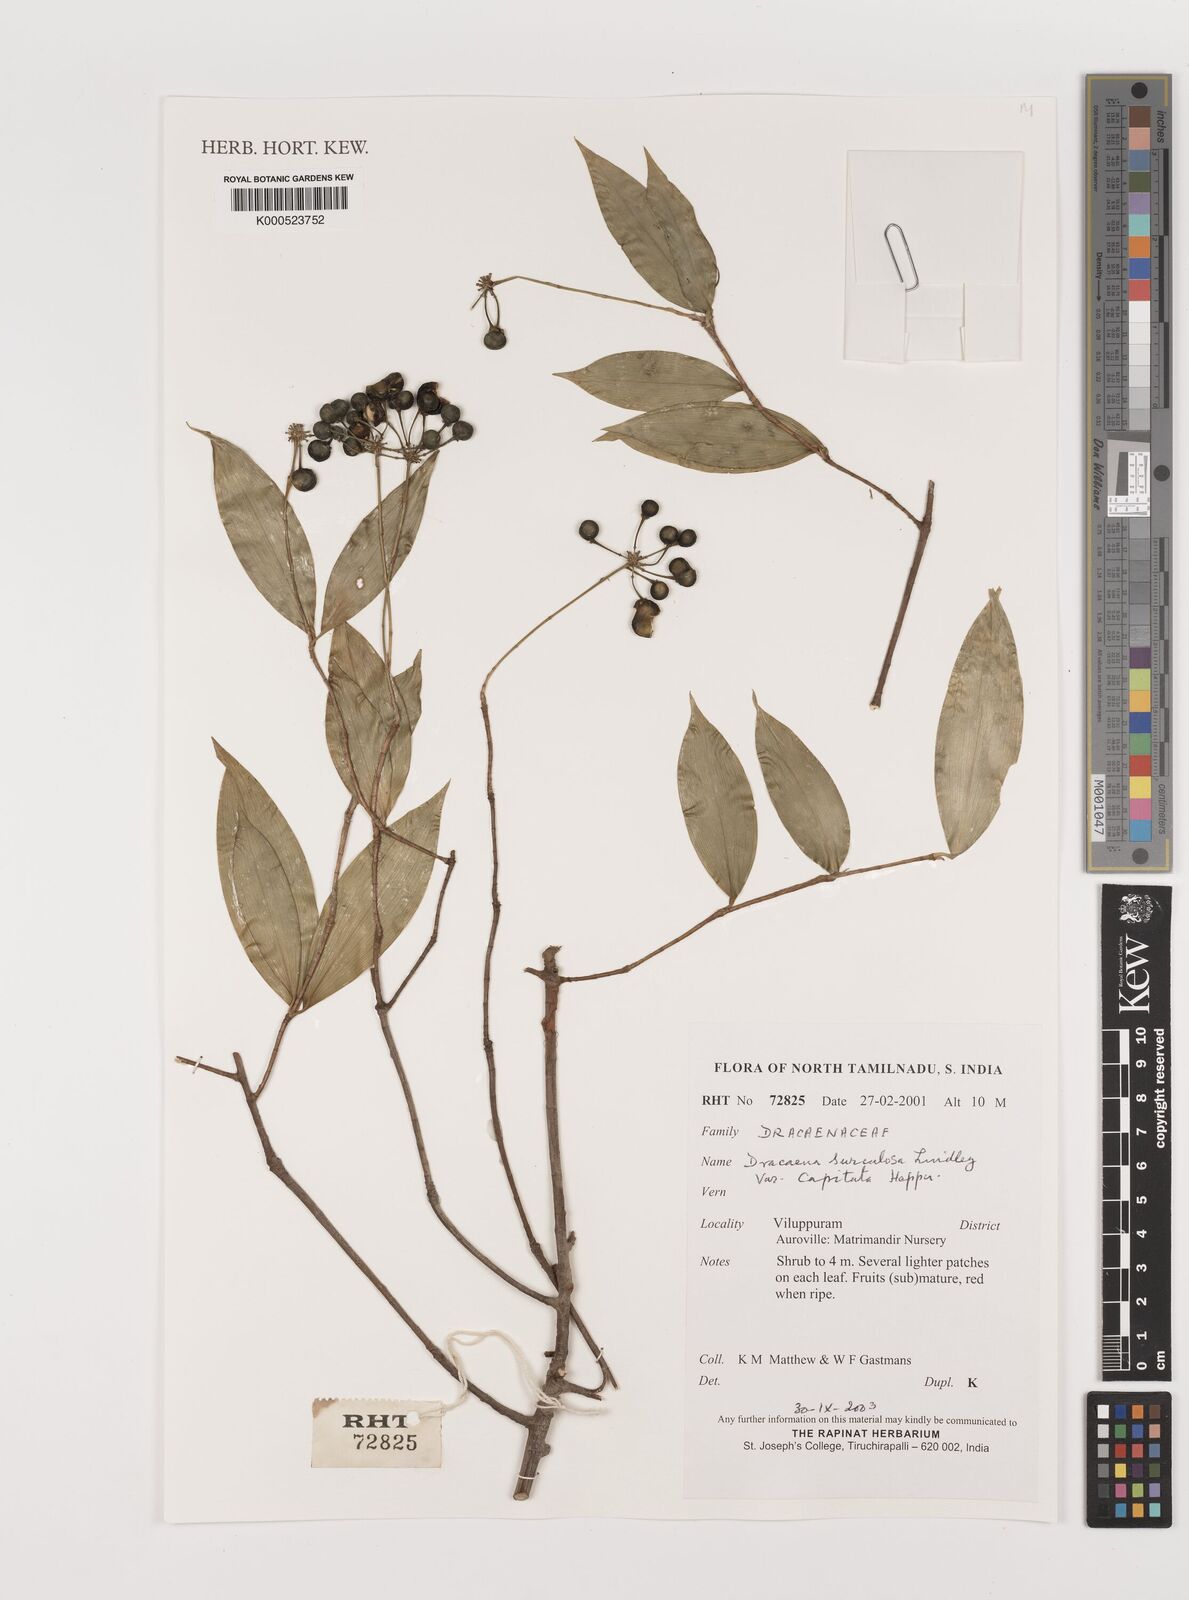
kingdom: Plantae
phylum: Tracheophyta
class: Liliopsida
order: Asparagales
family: Asparagaceae
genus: Dracaena
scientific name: Dracaena surculosa
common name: Spotted dracaena
